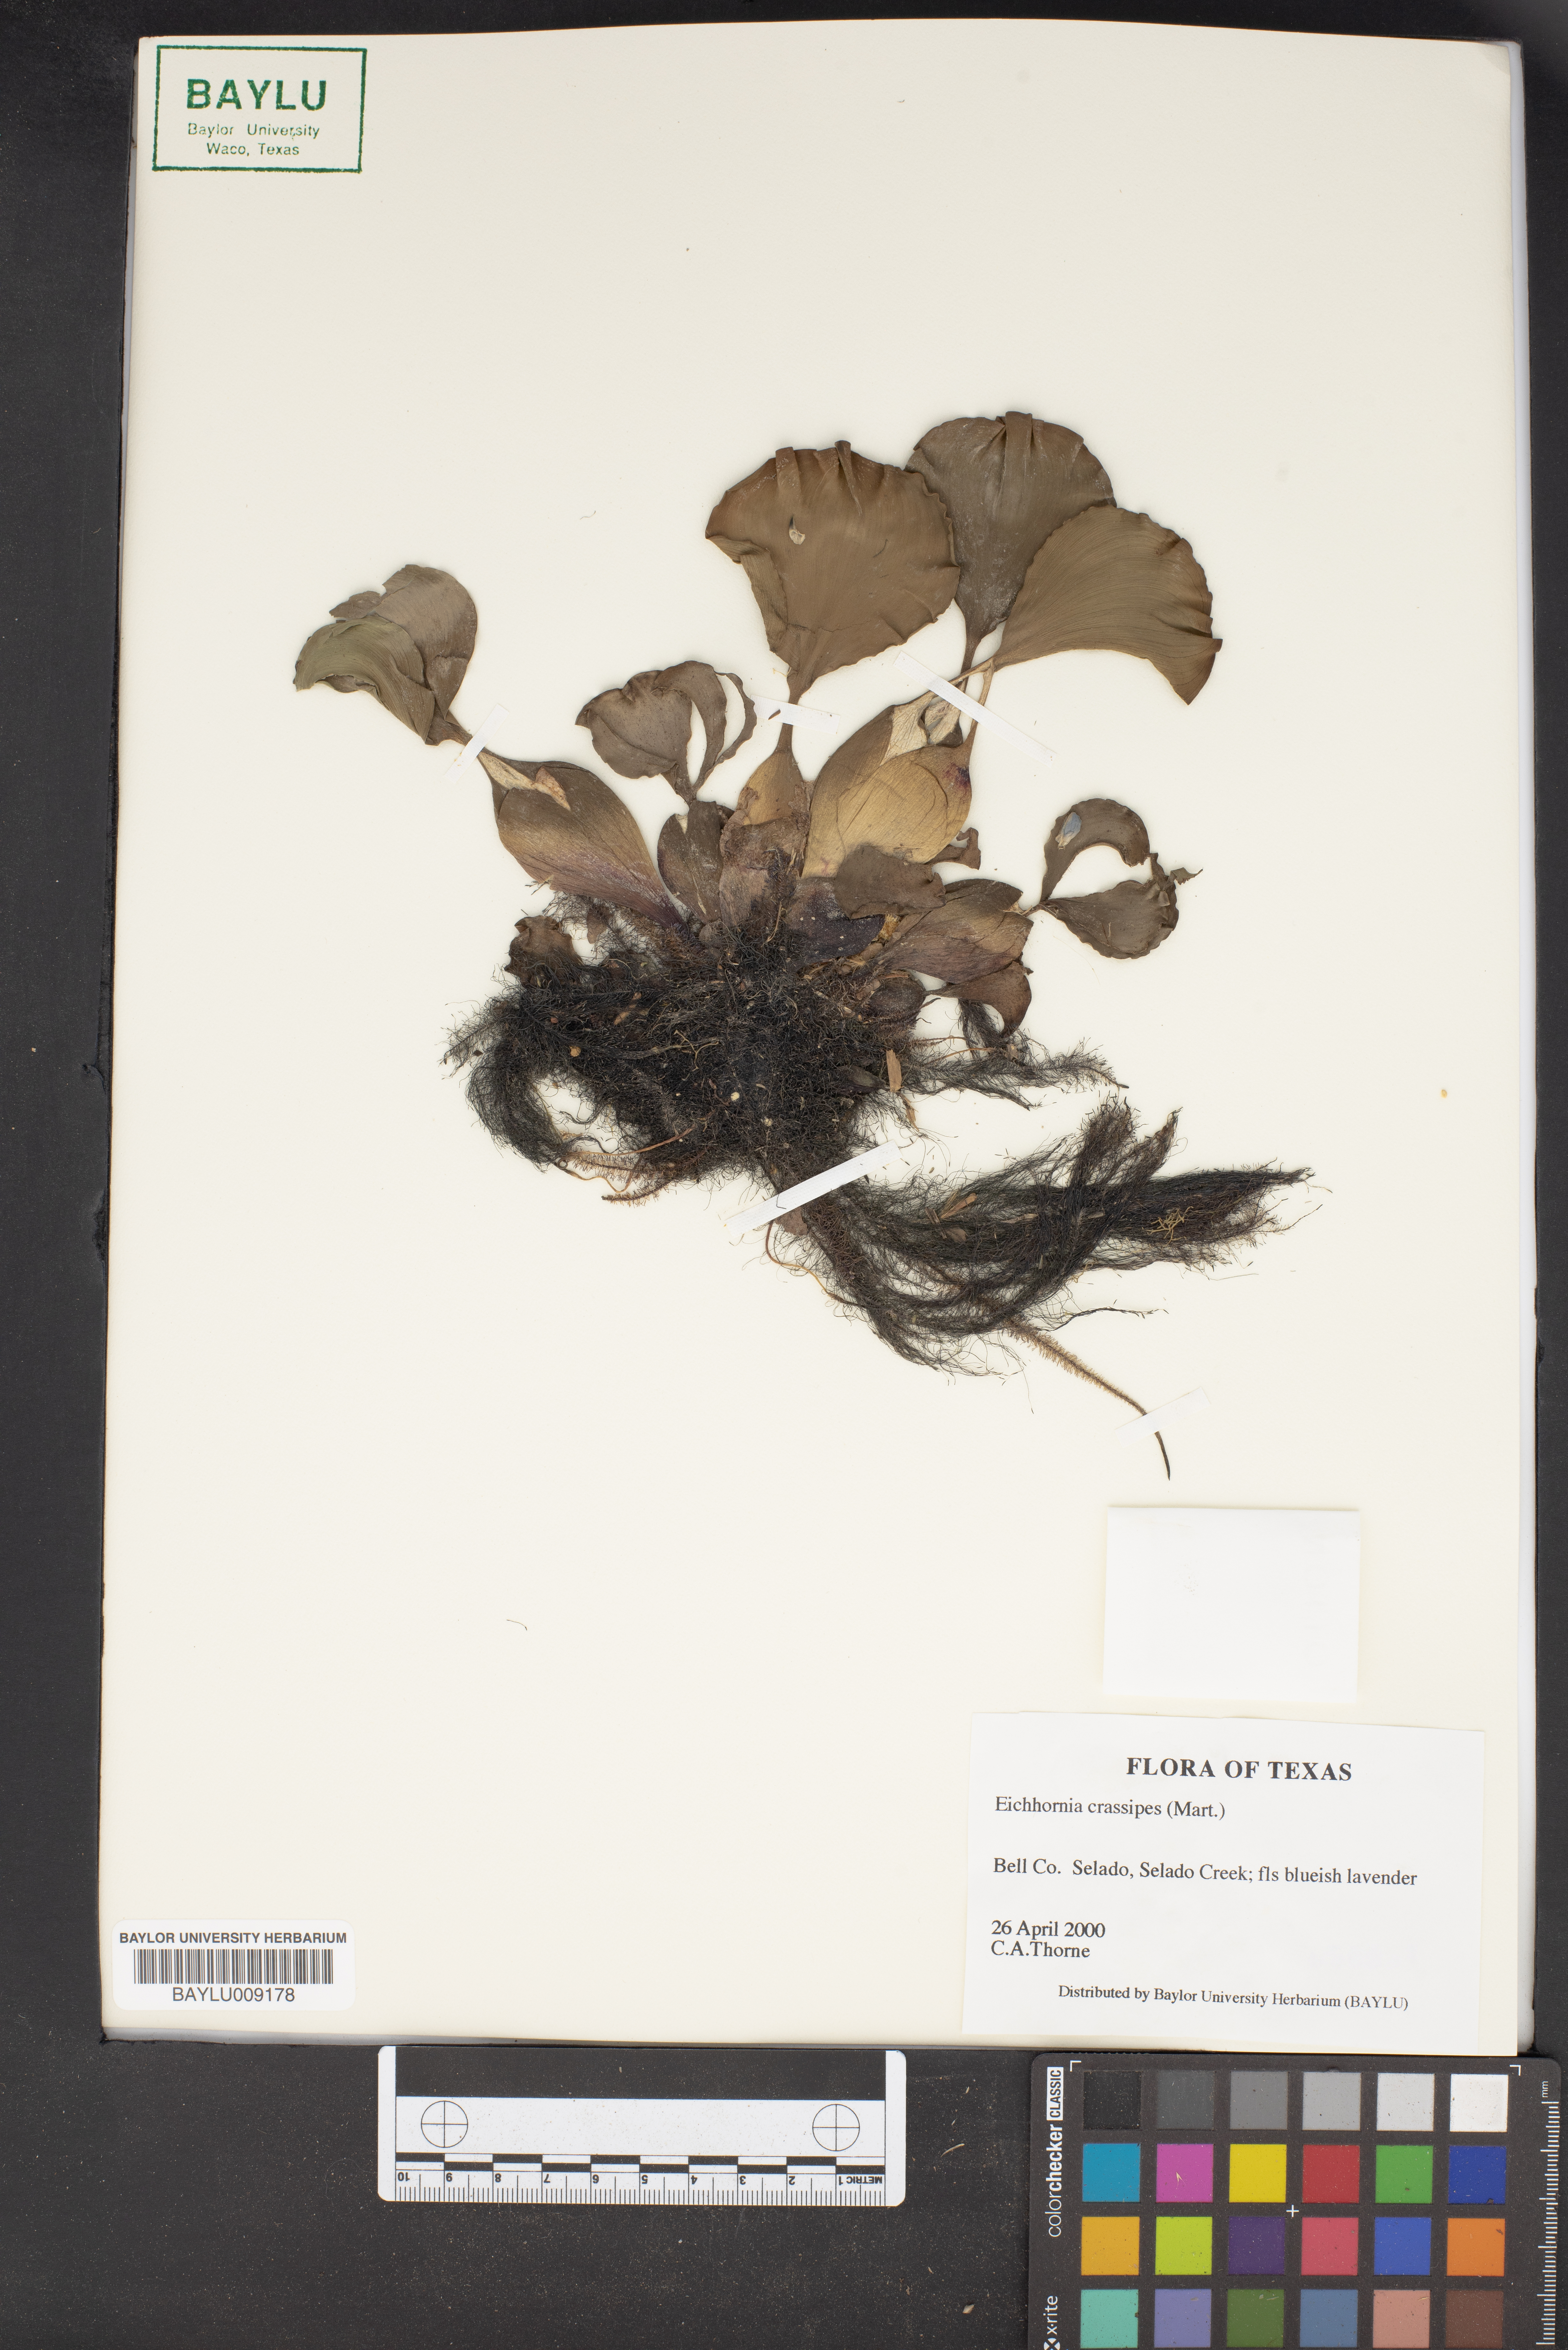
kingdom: Plantae
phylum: Tracheophyta
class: Liliopsida
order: Commelinales
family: Pontederiaceae
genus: Pontederia
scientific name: Pontederia crassipes
